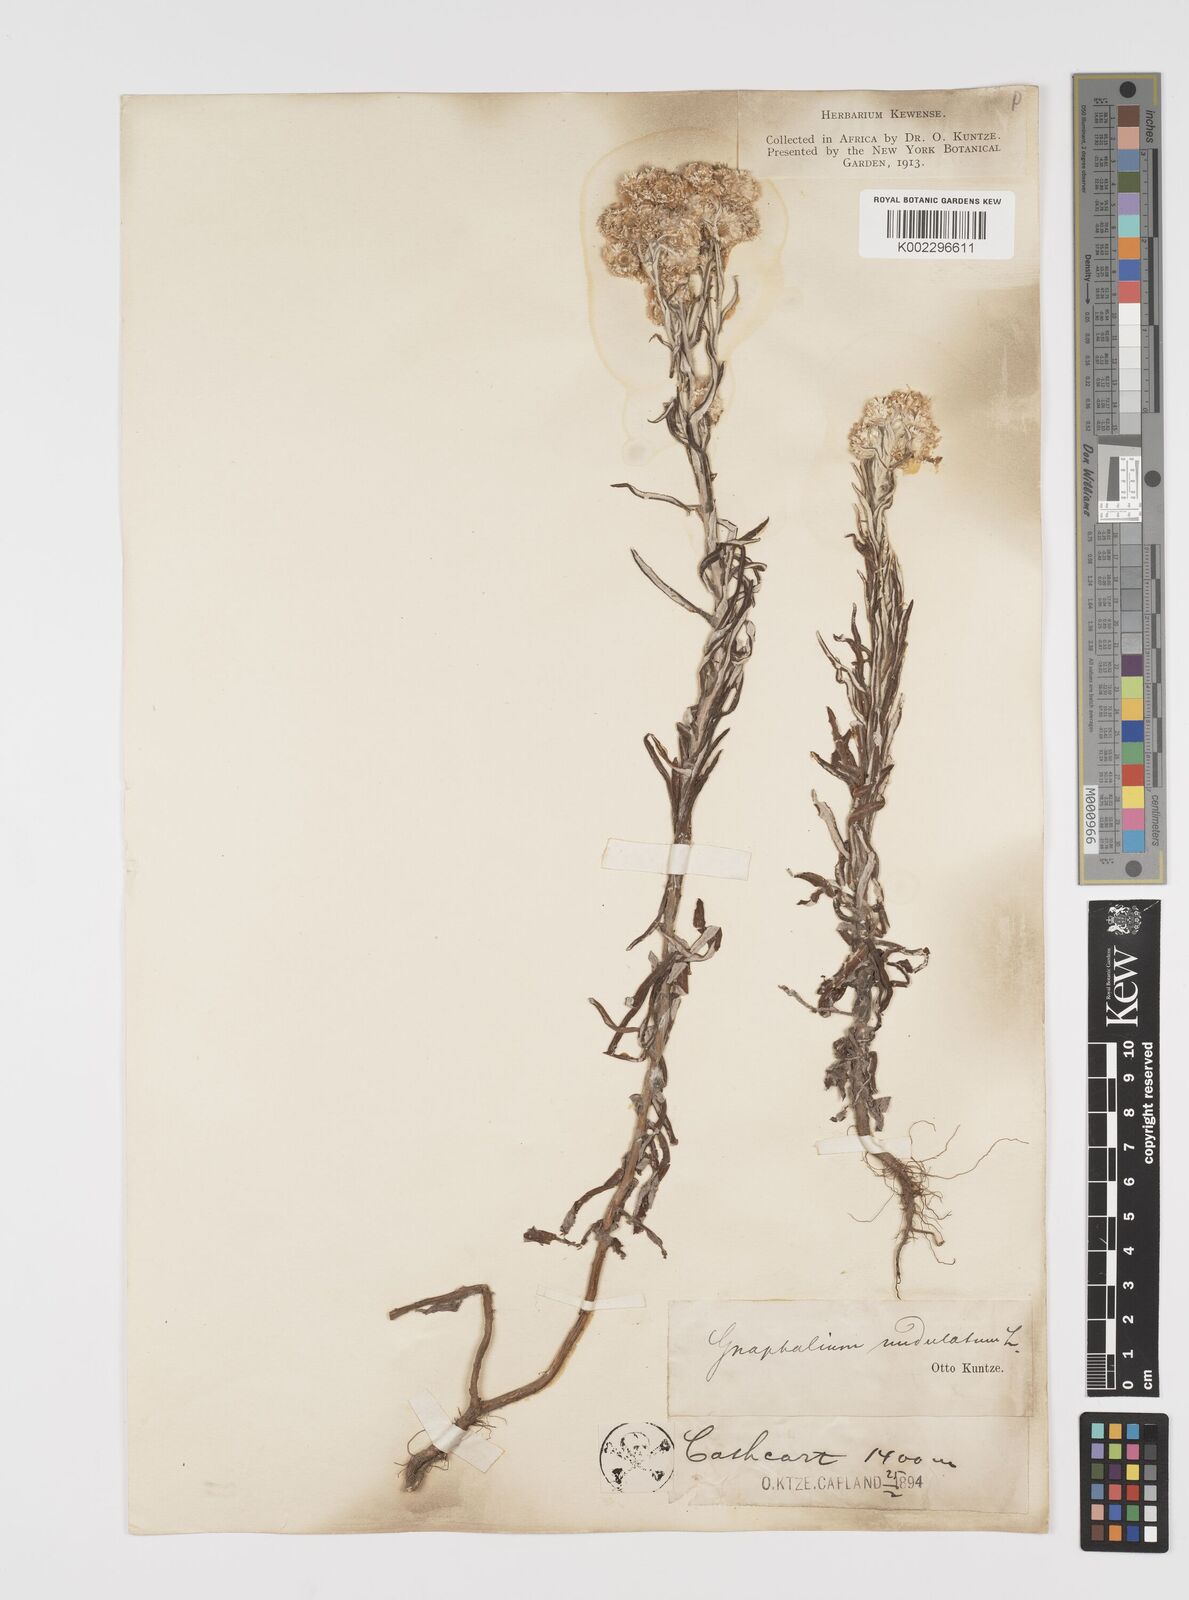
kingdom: Plantae
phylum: Tracheophyta
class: Magnoliopsida
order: Asterales
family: Asteraceae
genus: Pseudognaphalium
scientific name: Pseudognaphalium undulatum
